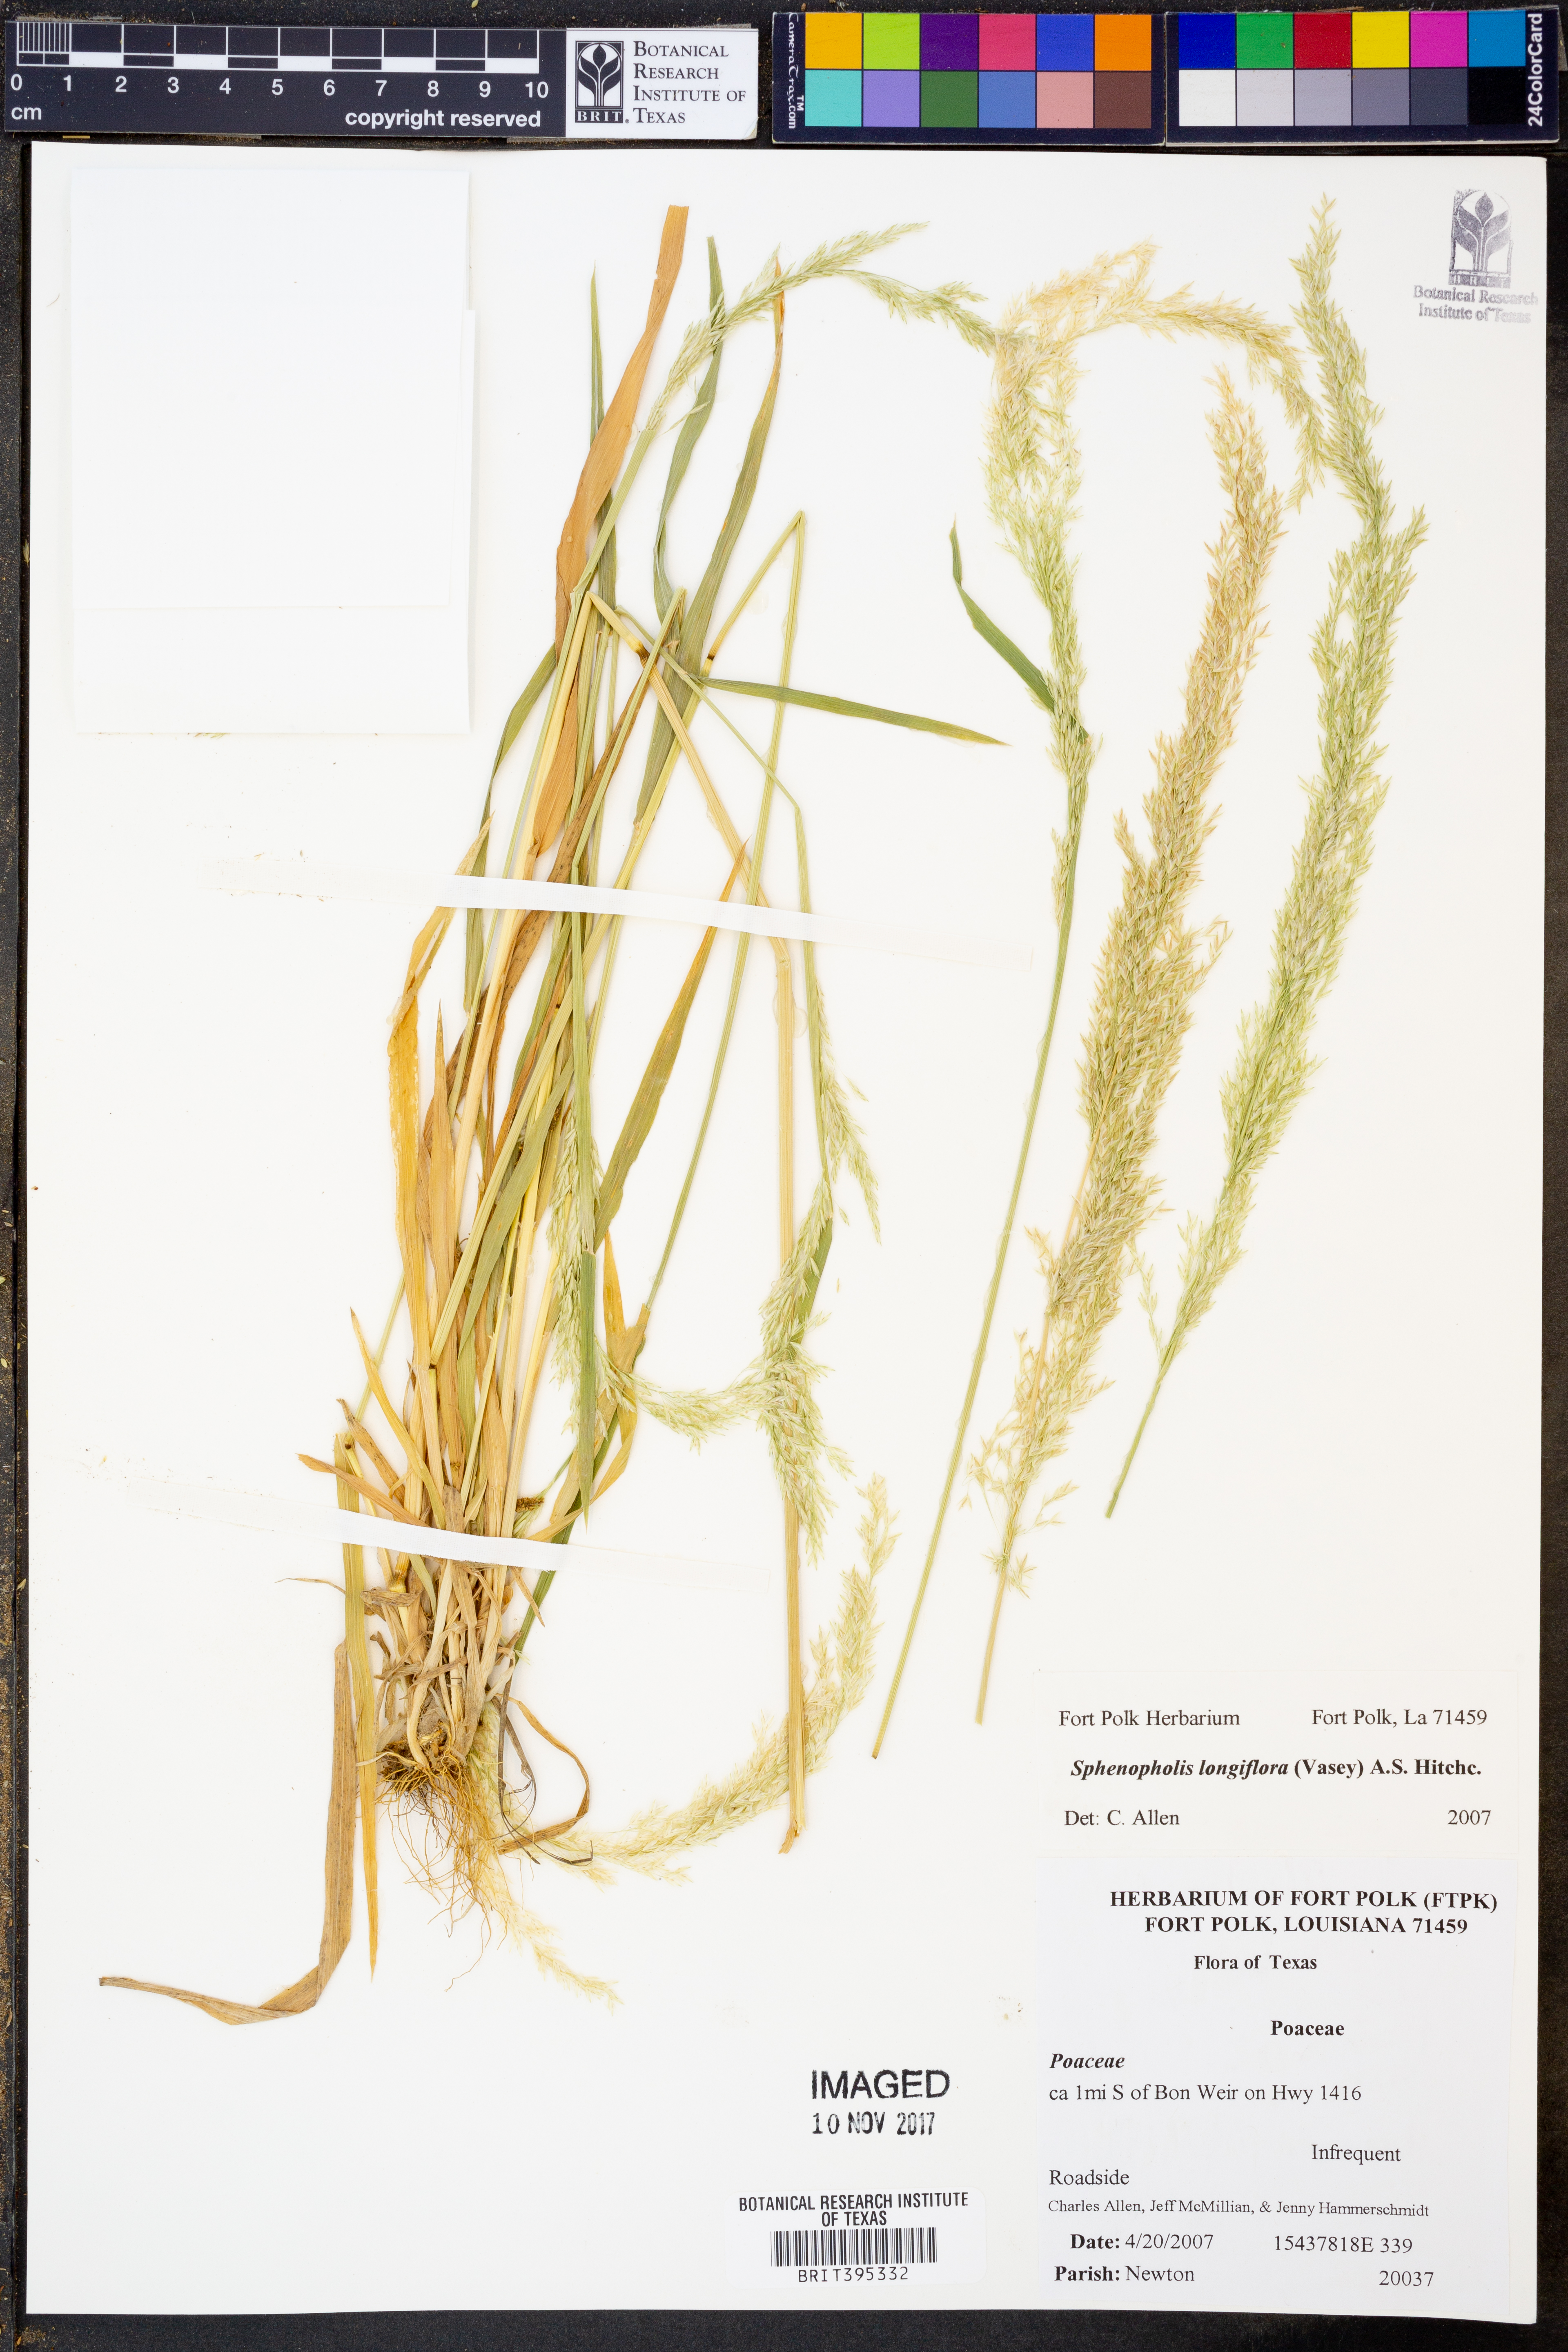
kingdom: Plantae
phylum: Tracheophyta
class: Liliopsida
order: Poales
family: Poaceae
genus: Sphenopholis
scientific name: Sphenopholis intermedia
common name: Intermediate eaton's grass
